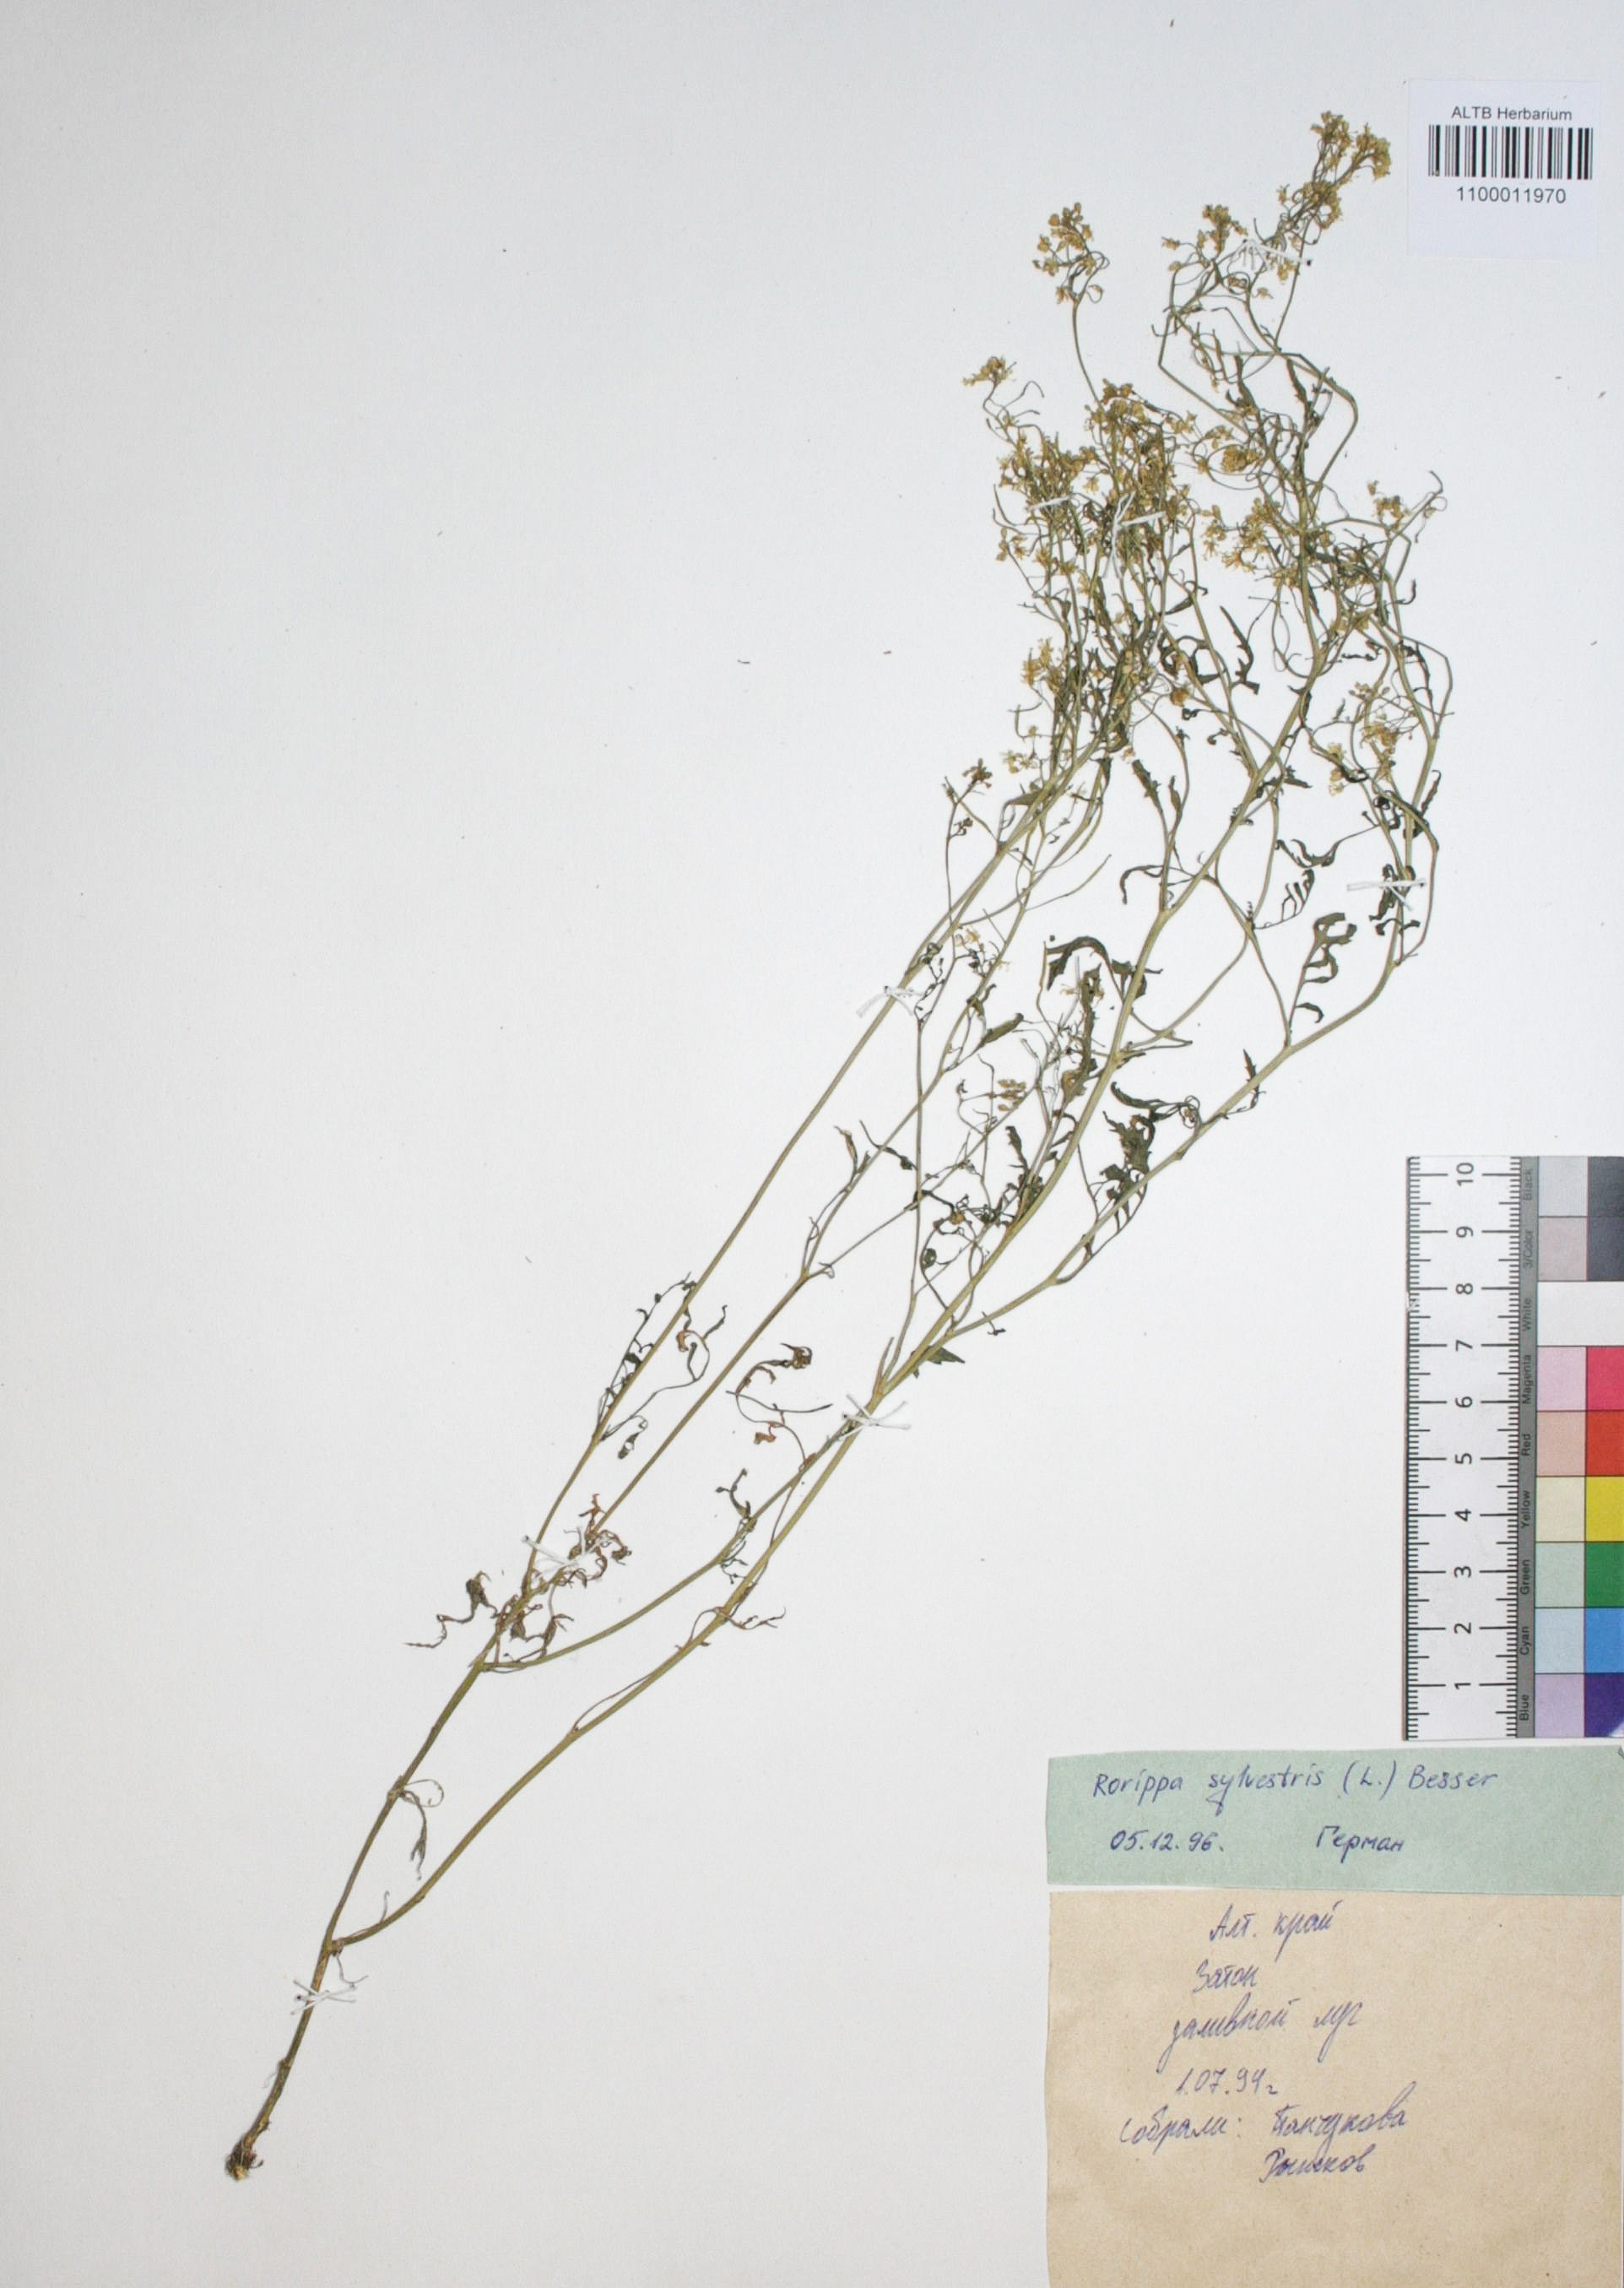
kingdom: Plantae
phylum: Tracheophyta
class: Magnoliopsida
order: Brassicales
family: Brassicaceae
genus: Rorippa
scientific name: Rorippa sylvestris
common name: Creeping yellowcress
